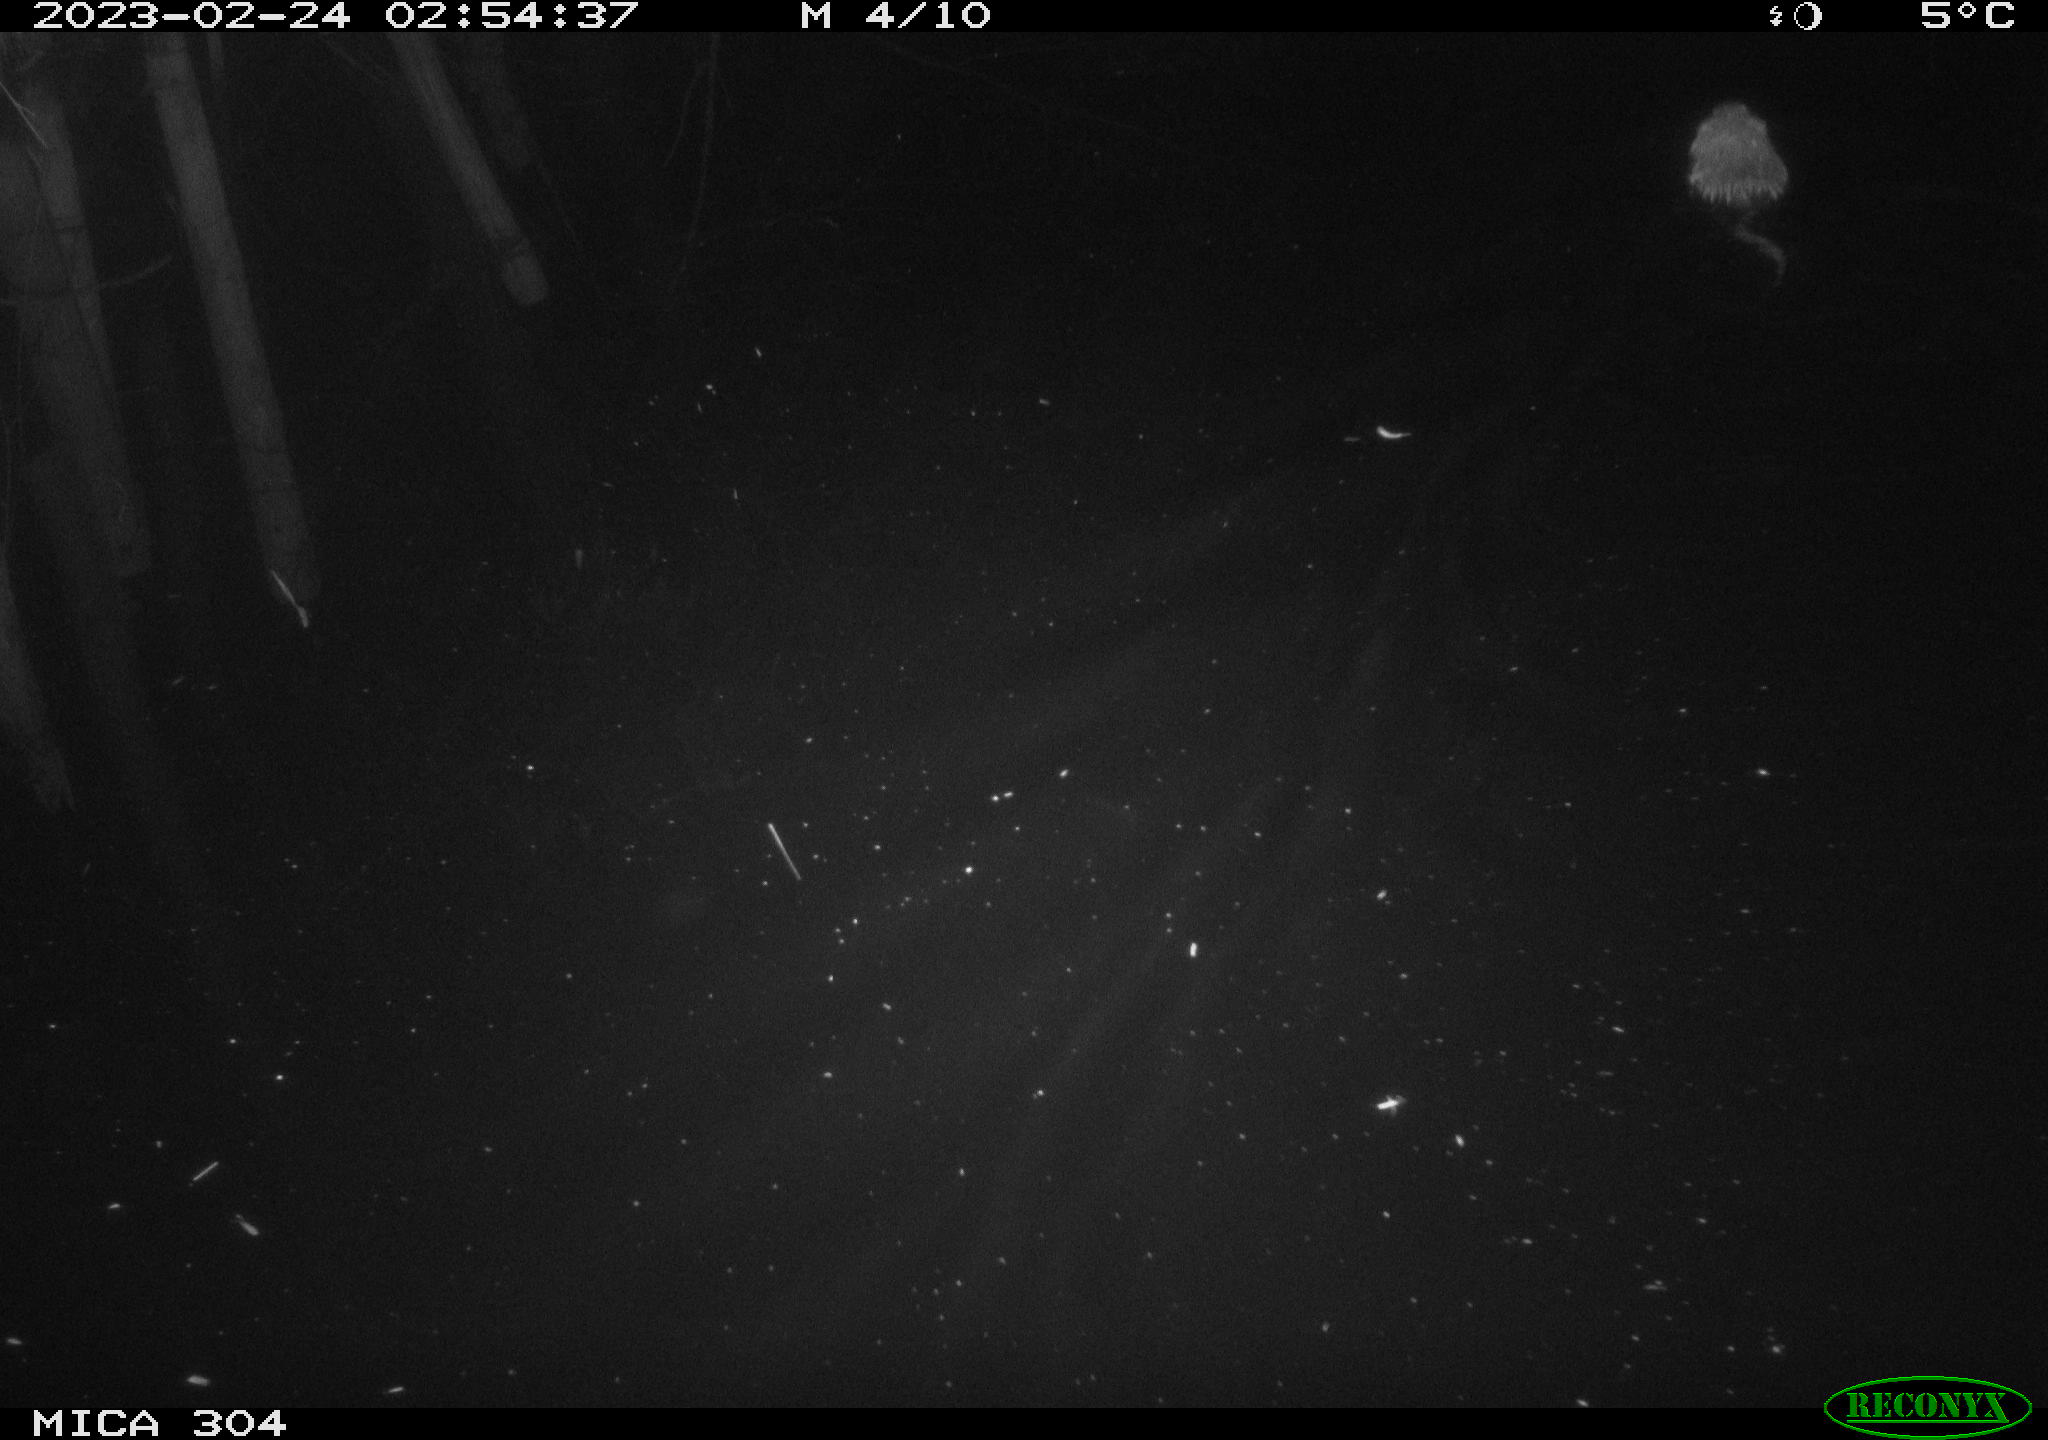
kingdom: Animalia
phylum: Chordata
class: Mammalia
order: Rodentia
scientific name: Rodentia
